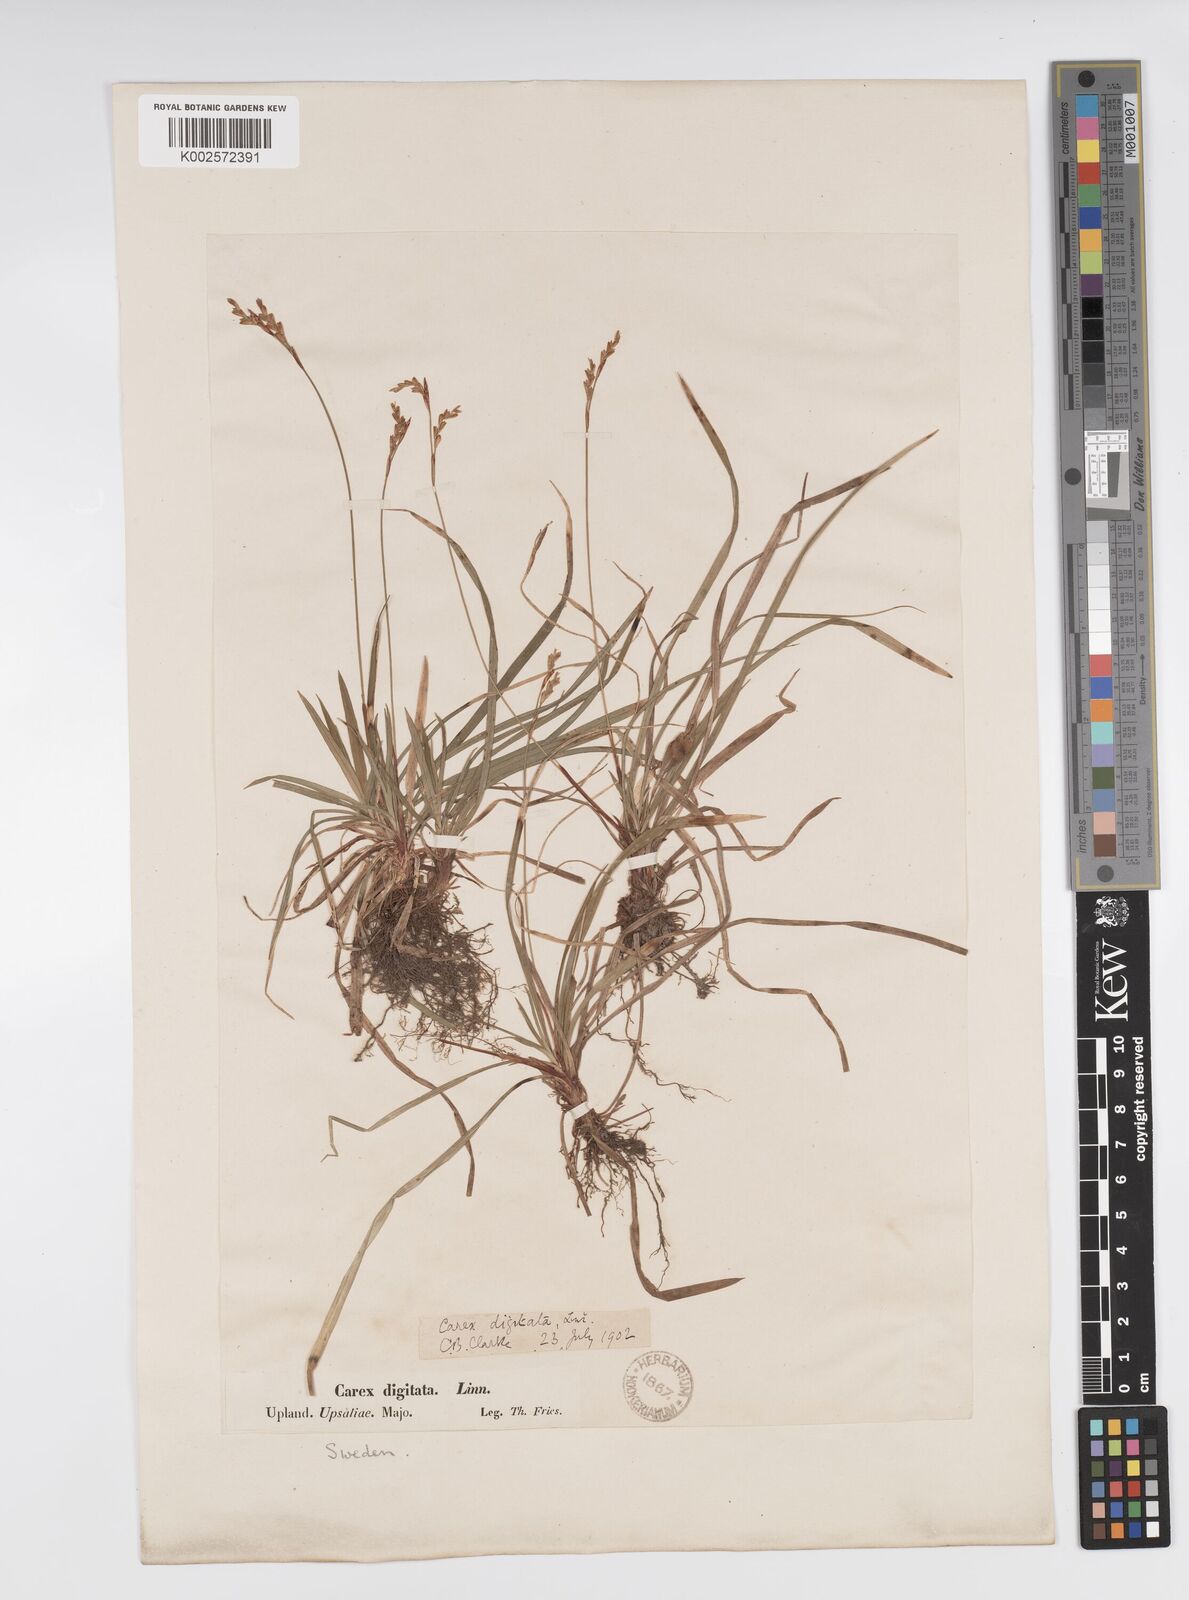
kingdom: Plantae
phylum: Tracheophyta
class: Liliopsida
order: Poales
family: Cyperaceae
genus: Carex
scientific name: Carex digitata
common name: Fingered sedge
